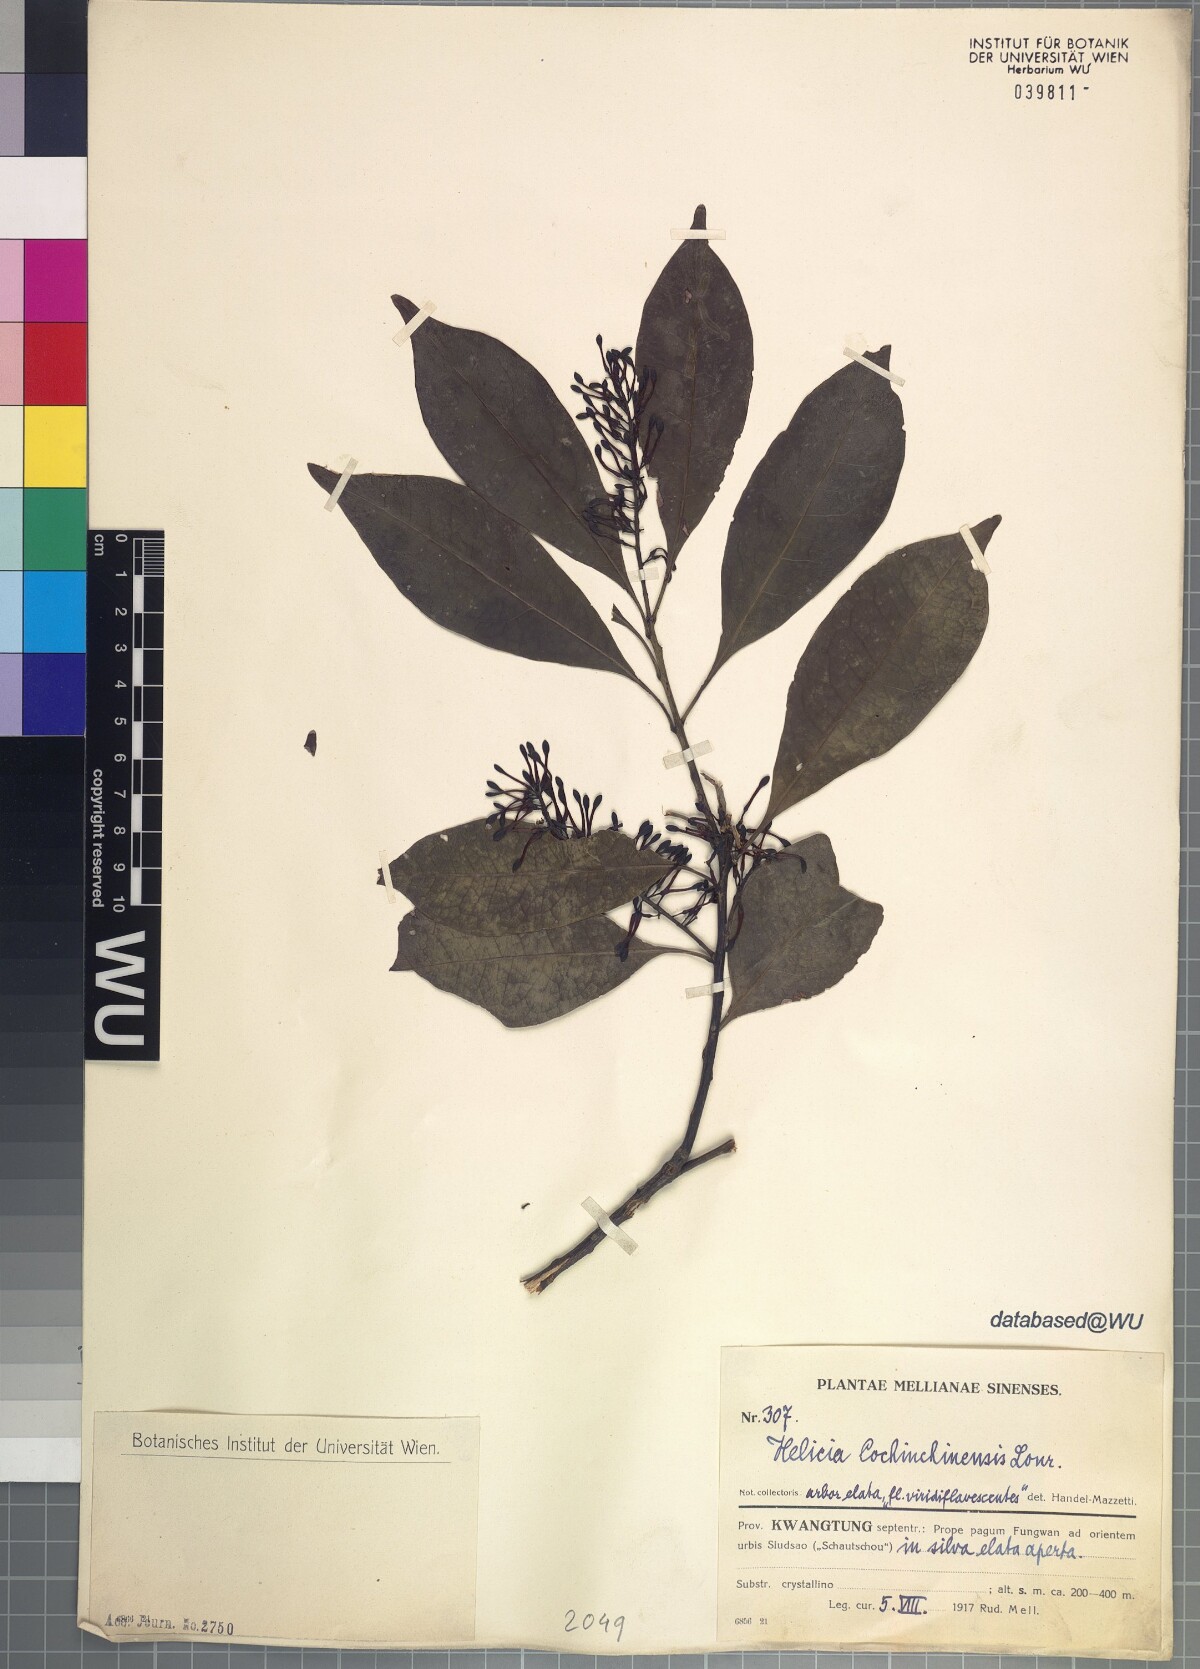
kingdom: Plantae
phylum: Tracheophyta
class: Magnoliopsida
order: Proteales
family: Proteaceae
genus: Helicia
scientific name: Helicia cochinchinensis
